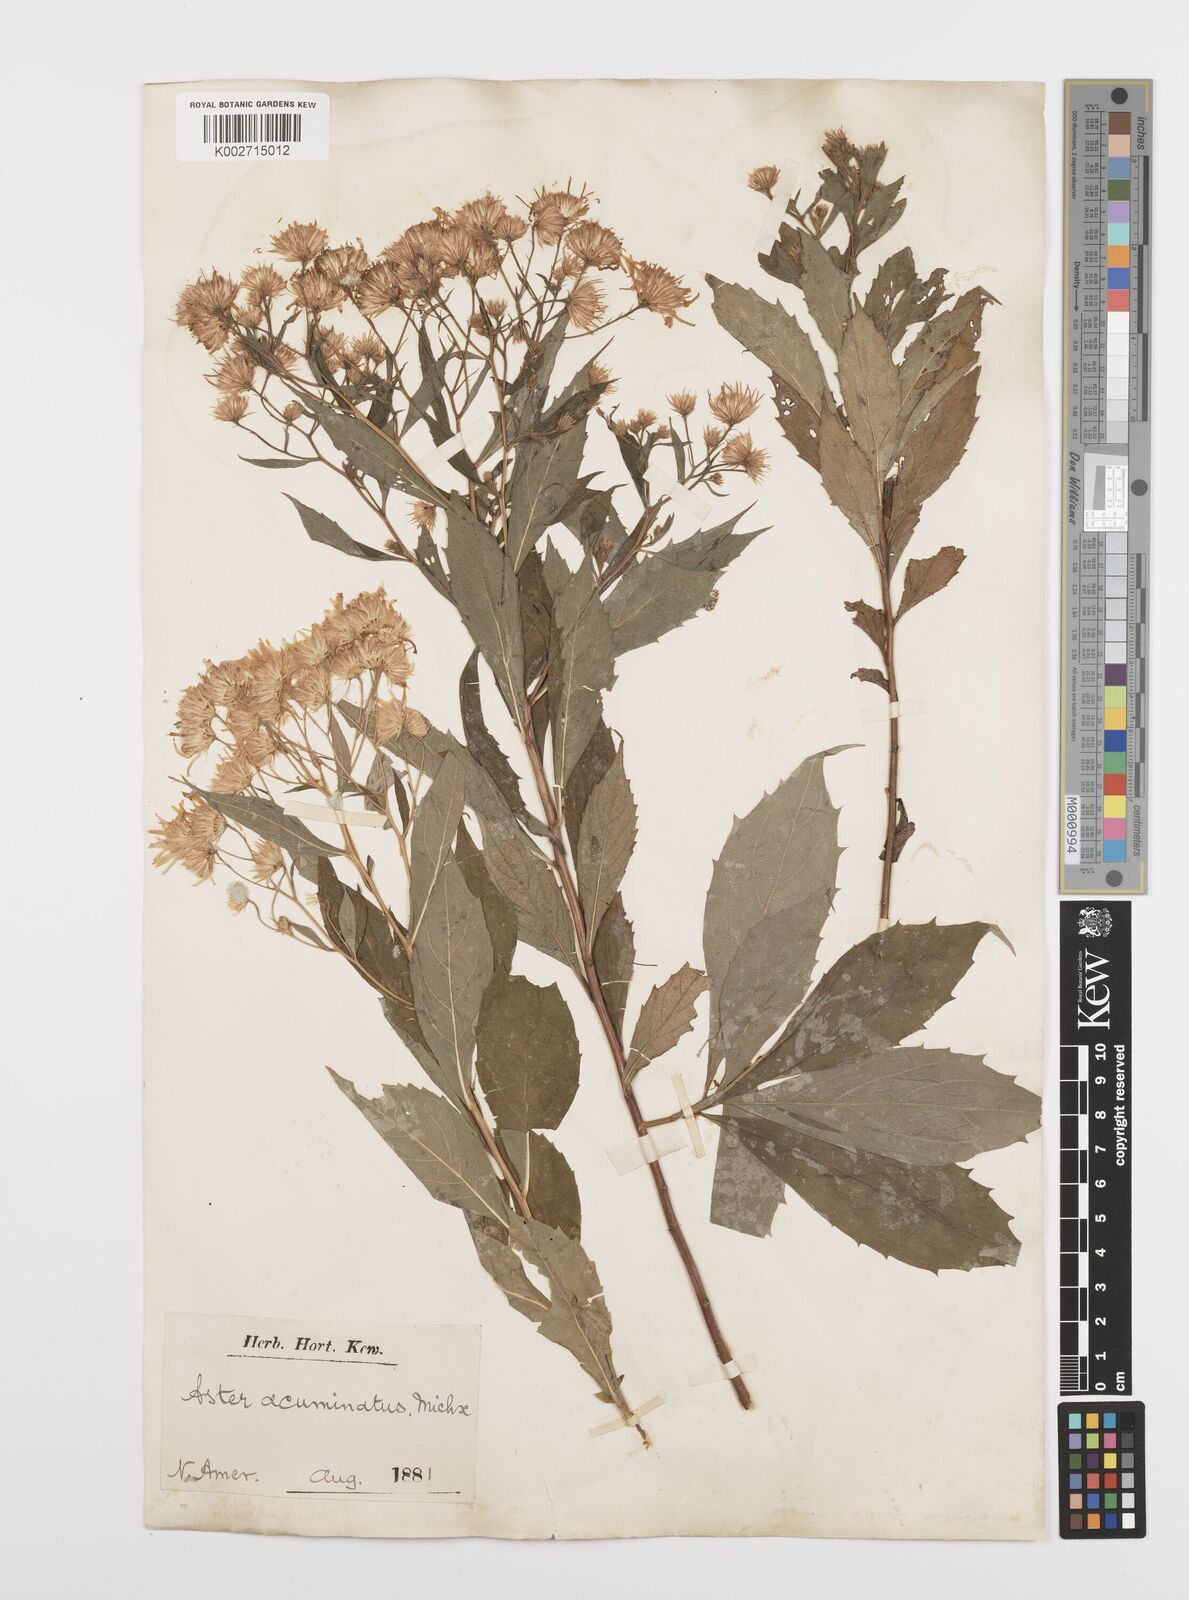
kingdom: Plantae
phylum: Tracheophyta
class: Magnoliopsida
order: Asterales
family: Asteraceae
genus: Oclemena
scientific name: Oclemena acuminata
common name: Mountain aster
